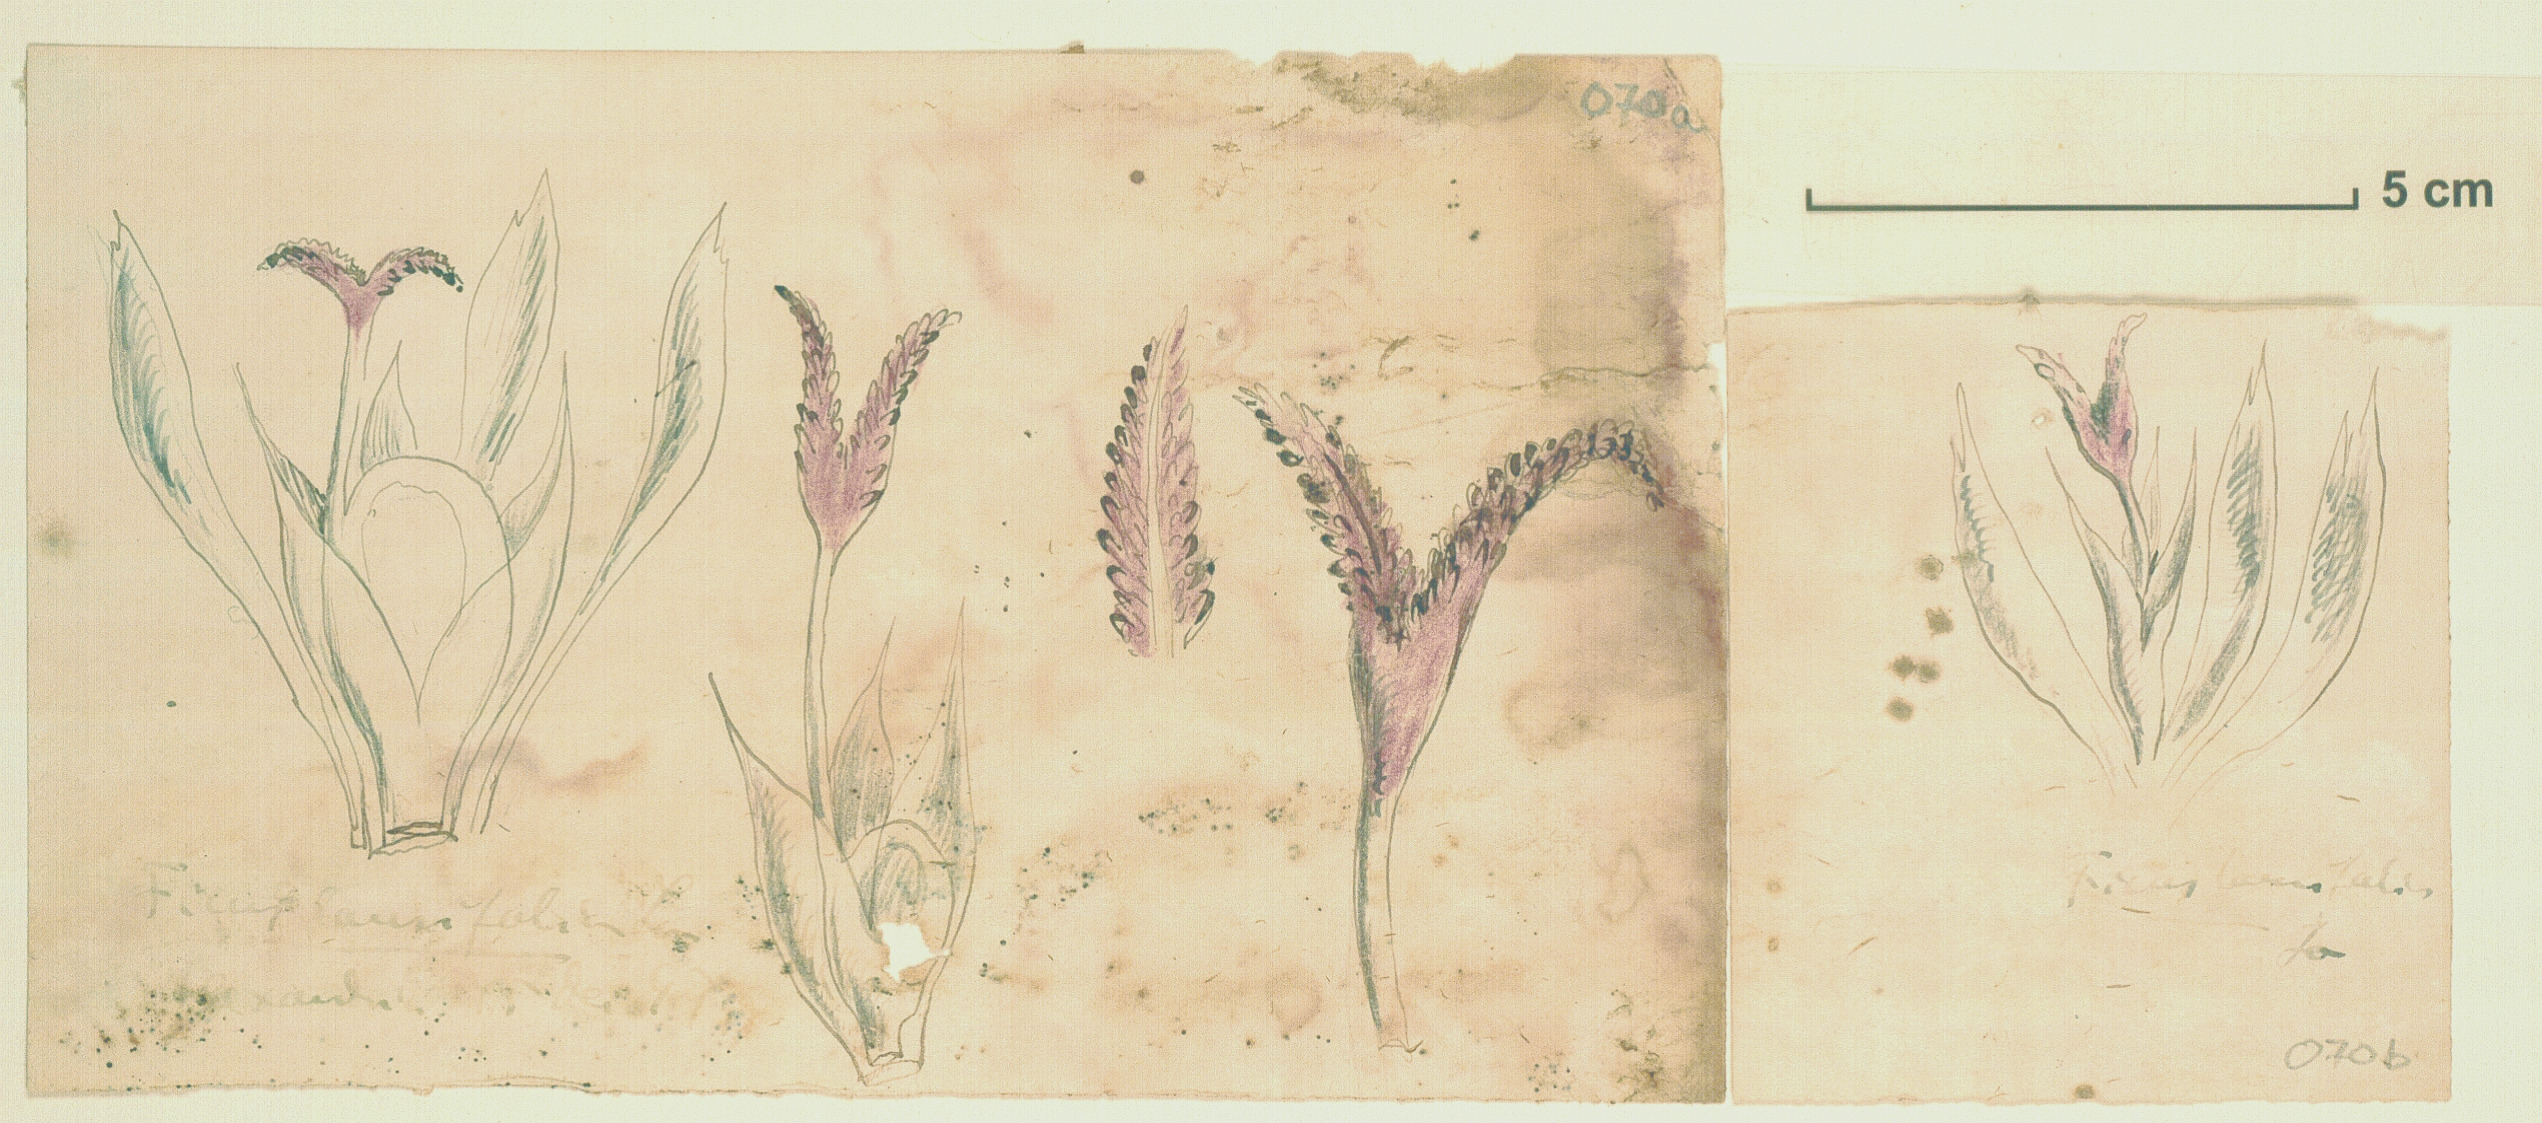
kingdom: Plantae
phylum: Tracheophyta
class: Magnoliopsida
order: Rosales
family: Moraceae
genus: Ficus
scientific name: Ficus maxima
